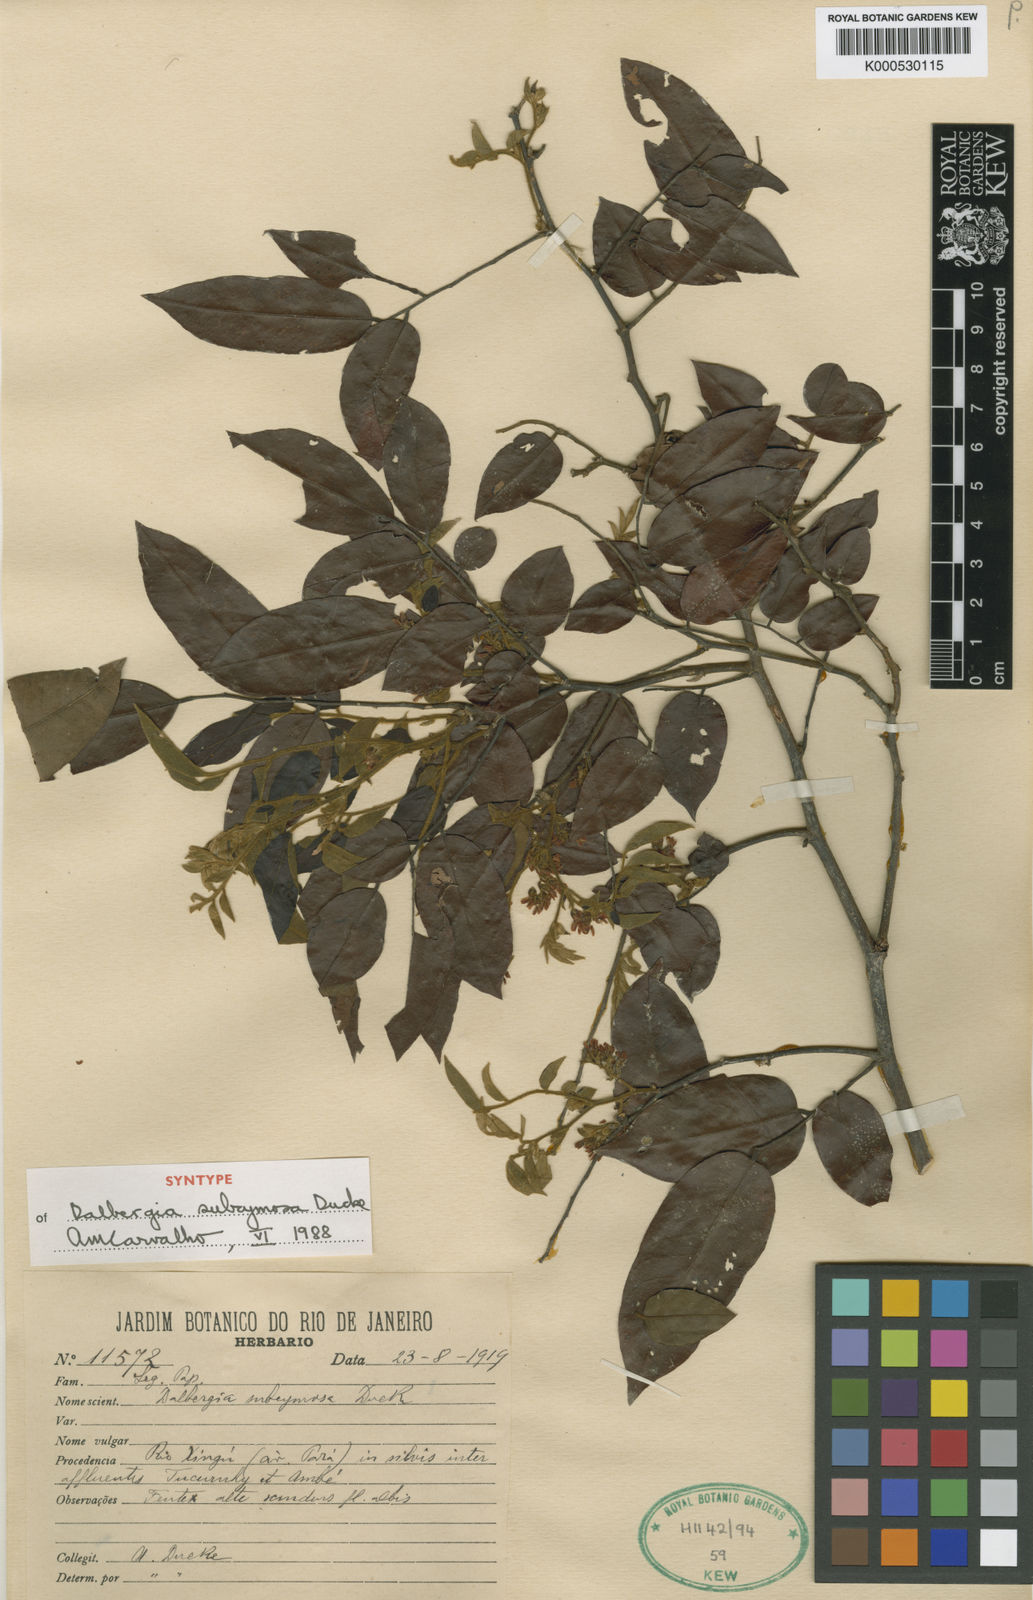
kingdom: Plantae
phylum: Tracheophyta
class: Magnoliopsida
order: Fabales
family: Fabaceae
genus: Dalbergia
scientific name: Dalbergia subcymosa
